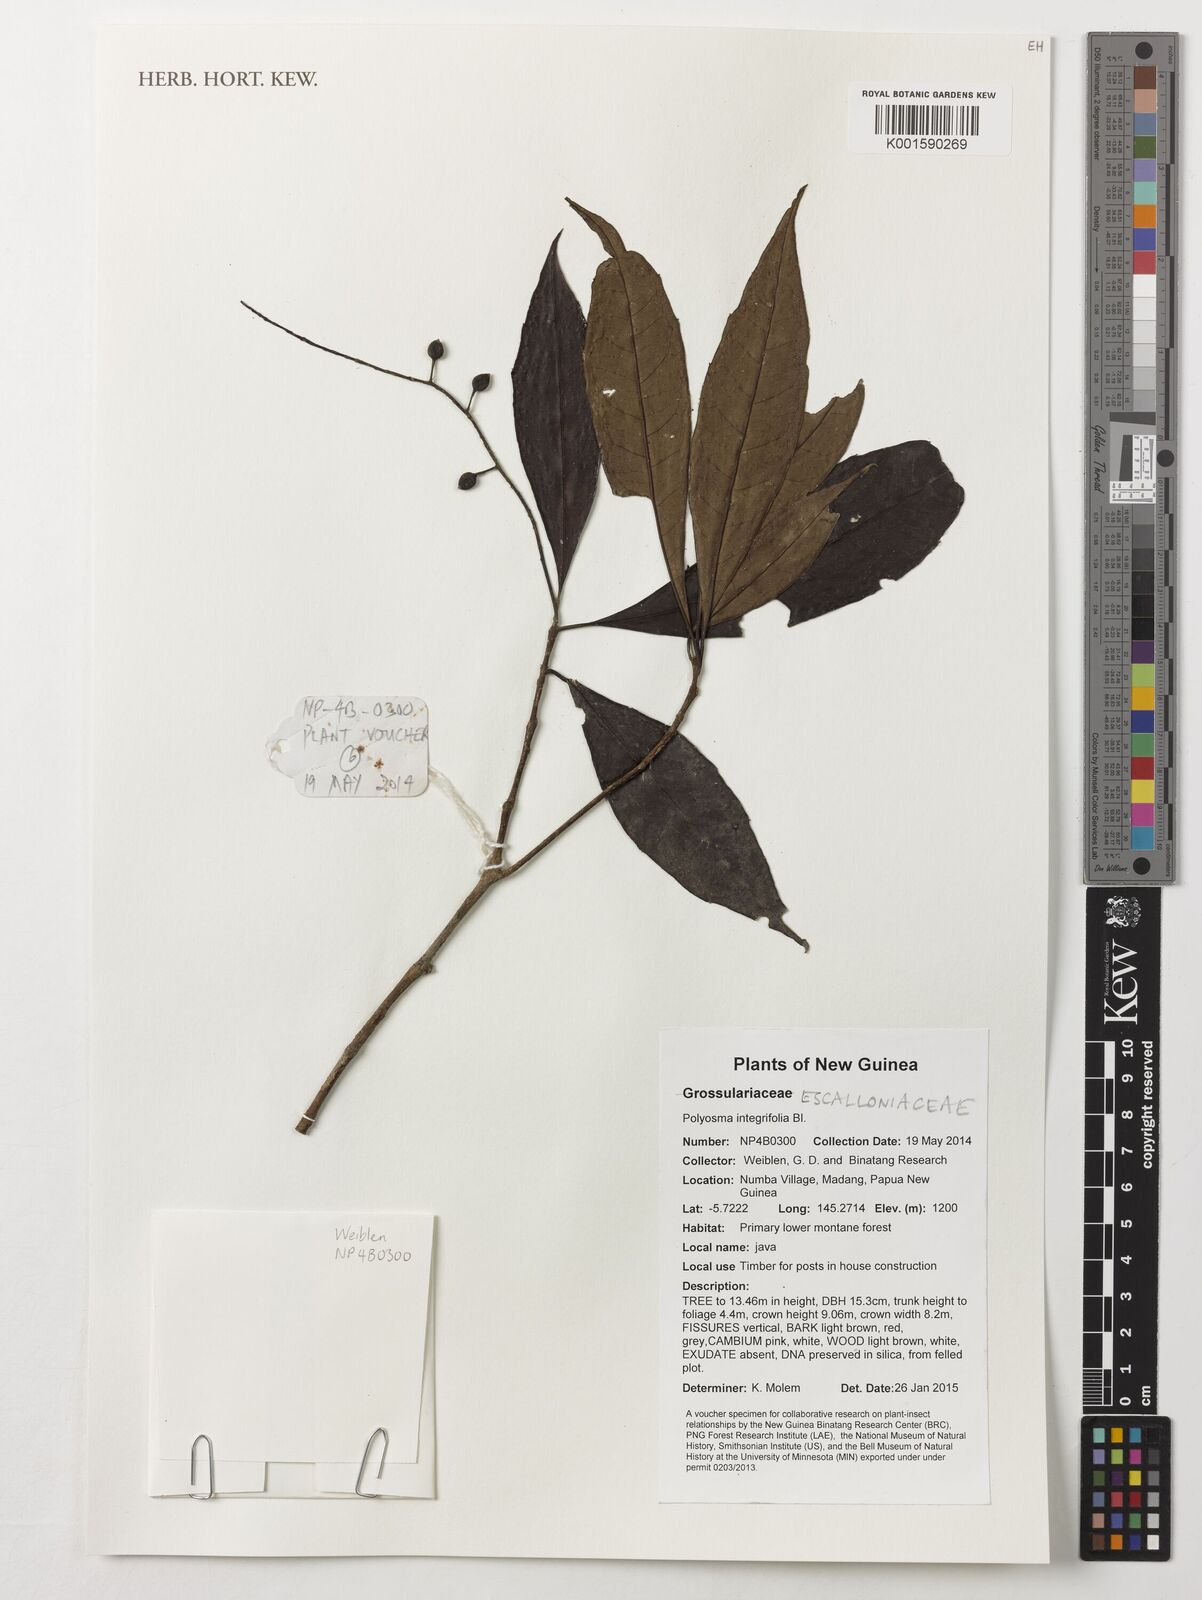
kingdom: Plantae
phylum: Tracheophyta
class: Magnoliopsida
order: Escalloniales
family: Escalloniaceae
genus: Polyosma
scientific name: Polyosma integrifolia
